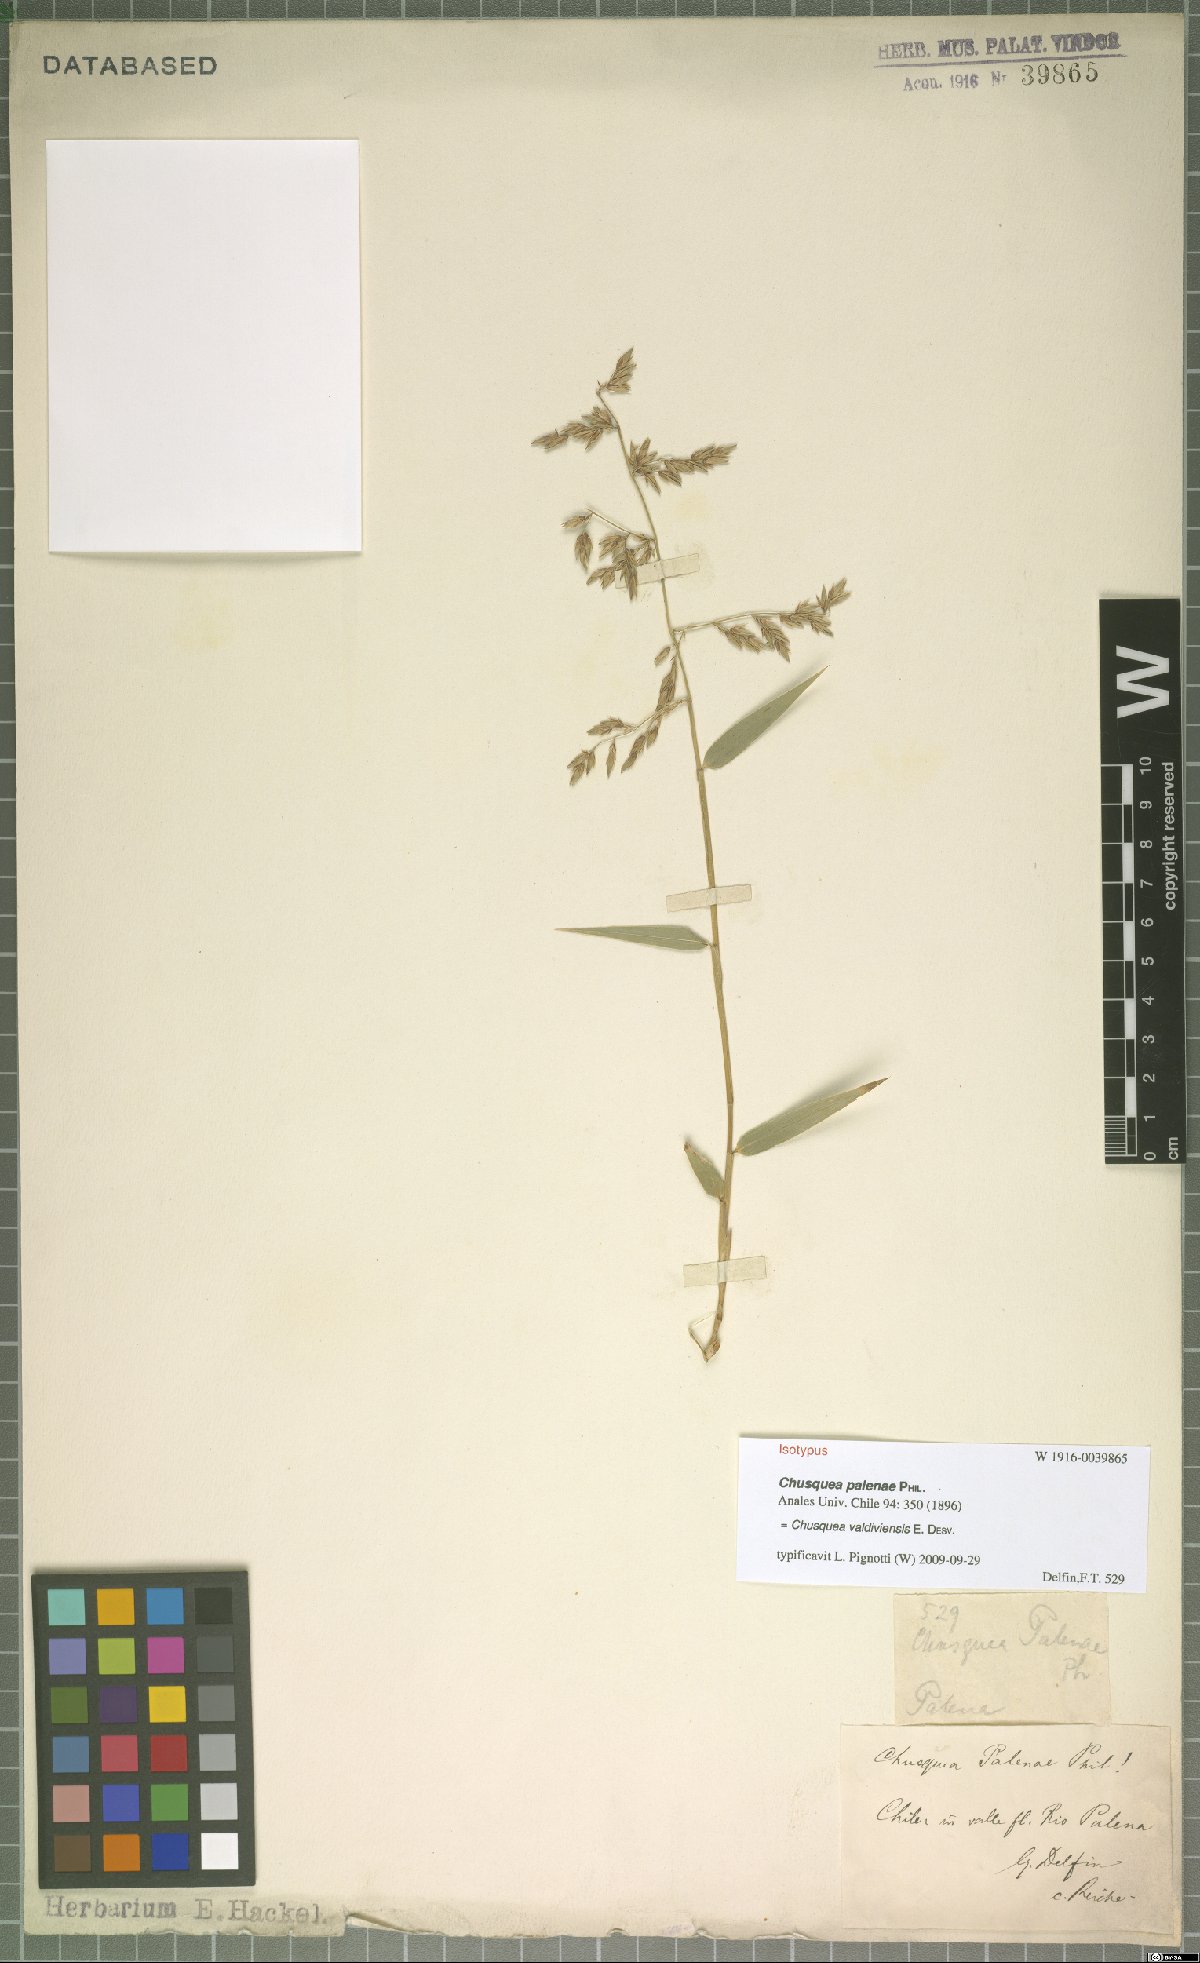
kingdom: Plantae
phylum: Tracheophyta
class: Liliopsida
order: Poales
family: Poaceae
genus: Chusquea
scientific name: Chusquea valdiviensis
